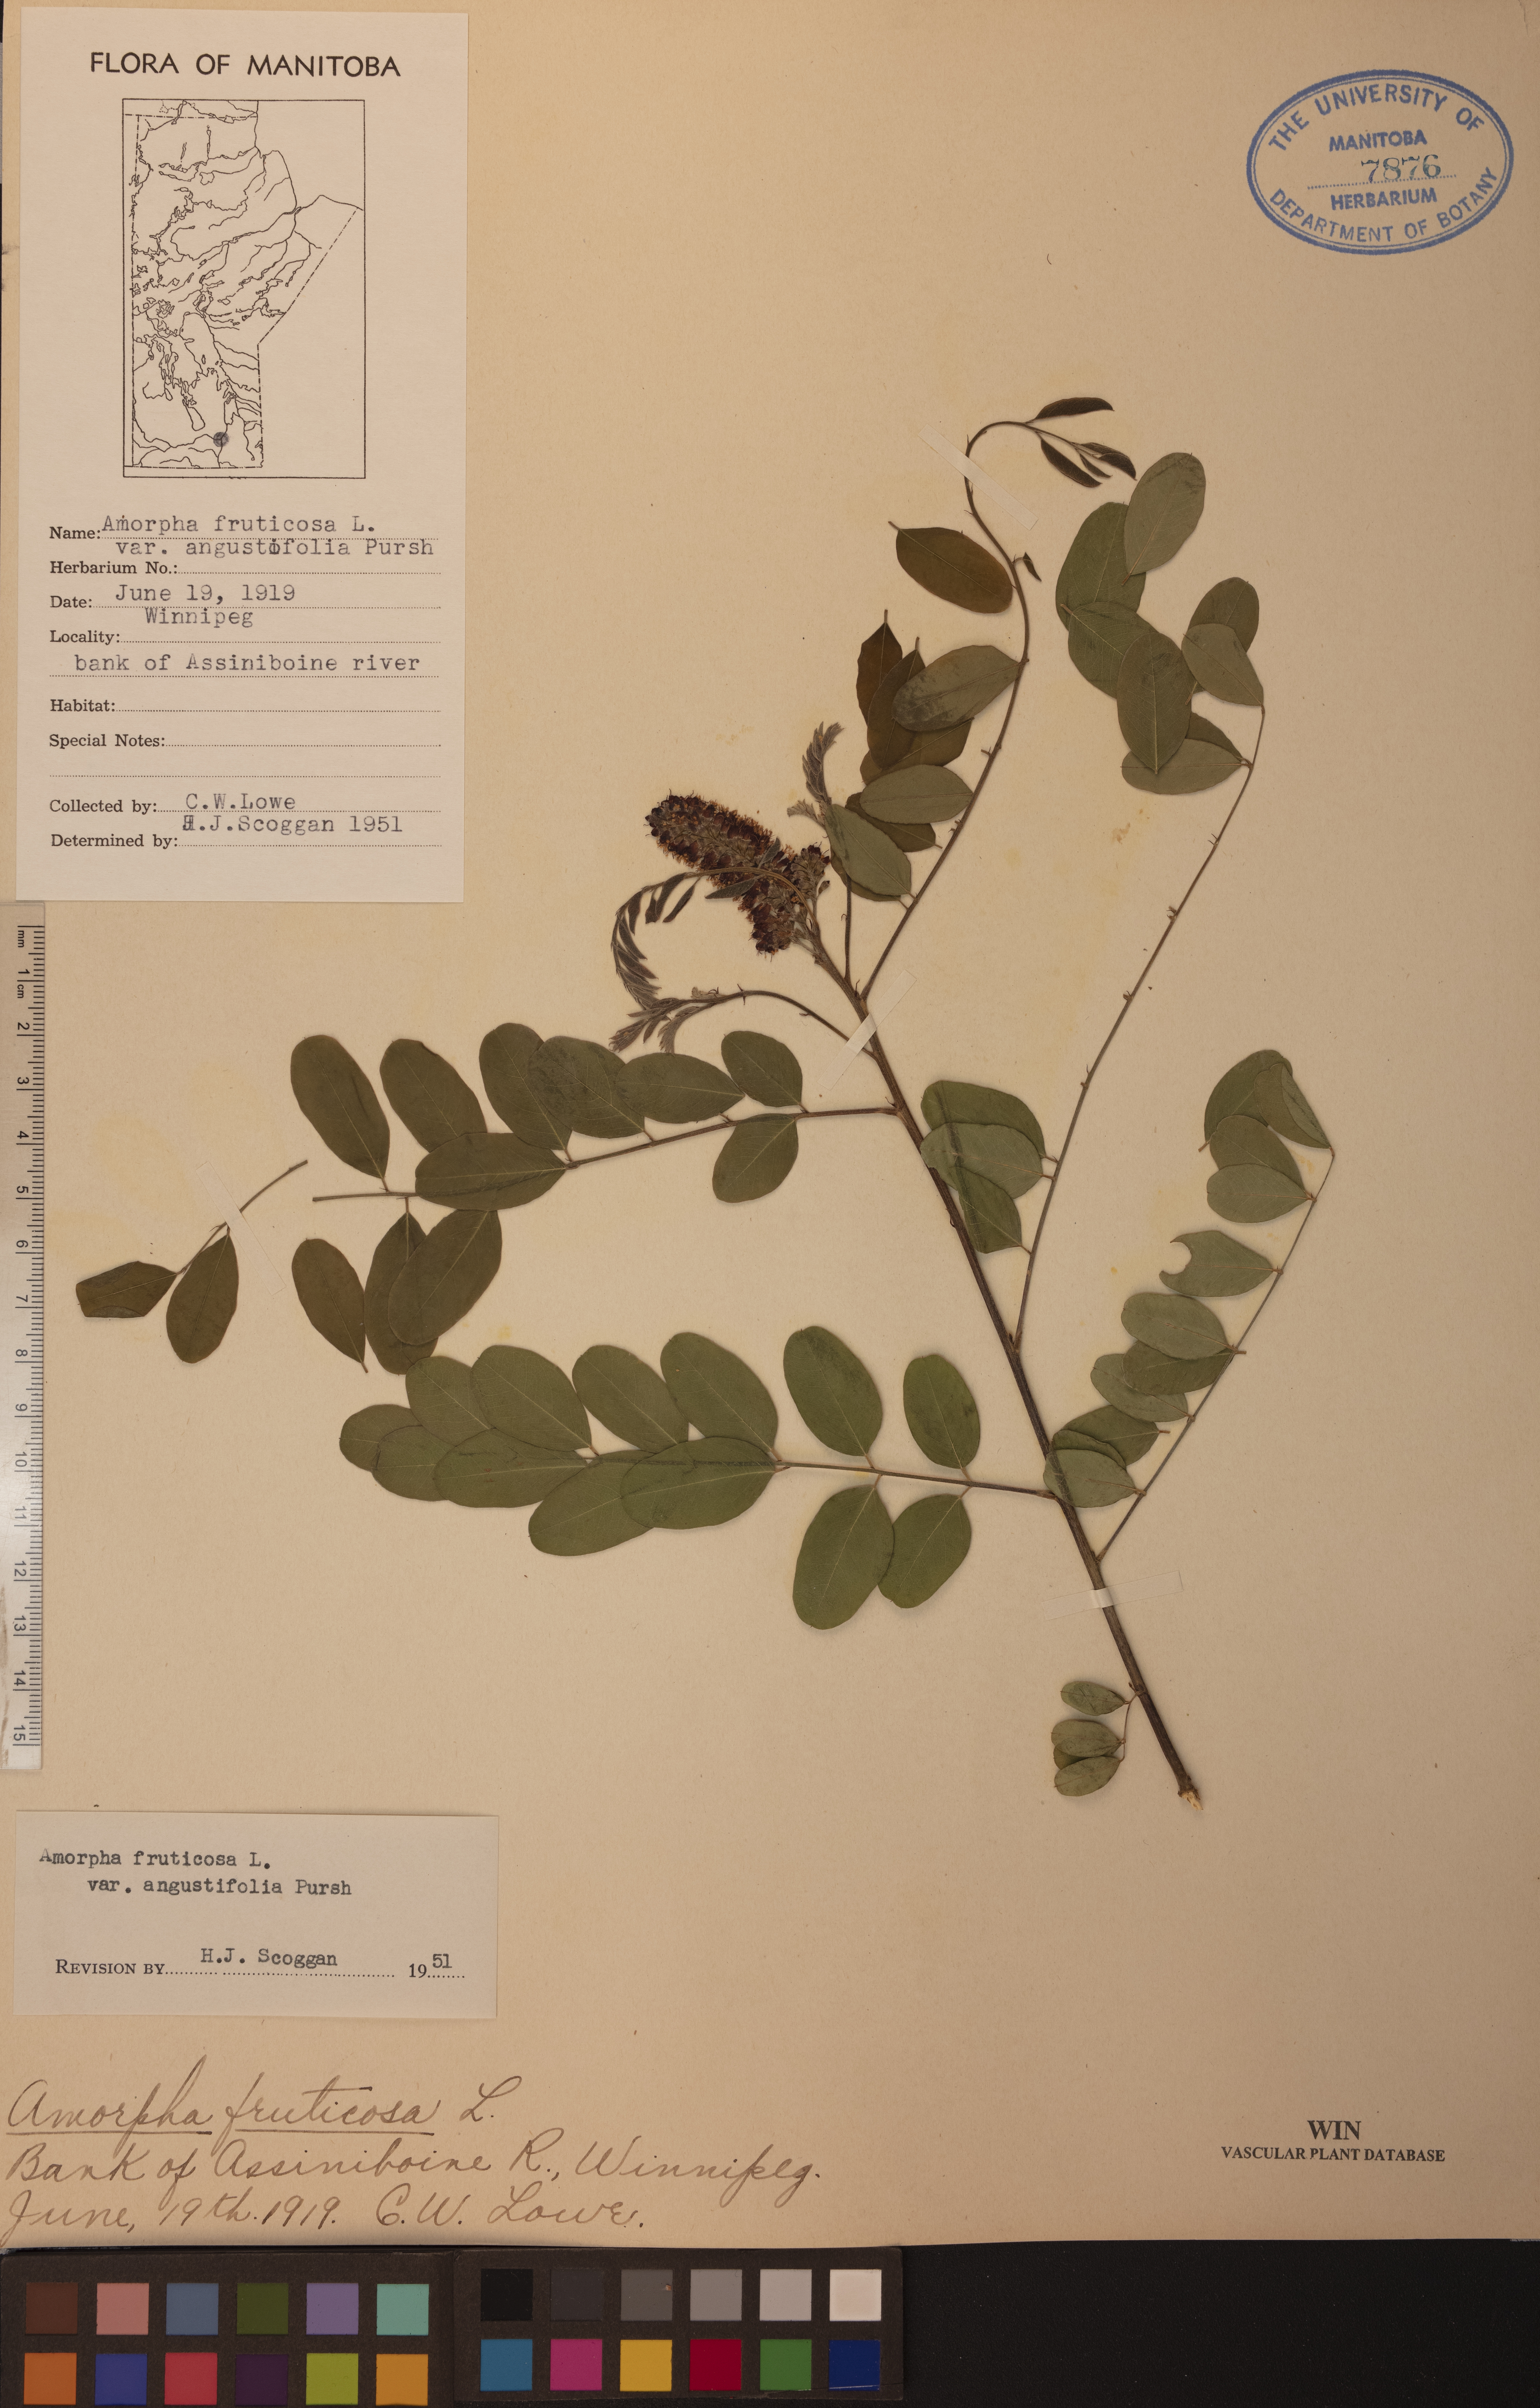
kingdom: Plantae
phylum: Tracheophyta
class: Magnoliopsida
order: Fabales
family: Fabaceae
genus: Amorpha
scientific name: Amorpha fruticosa
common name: False indigo
